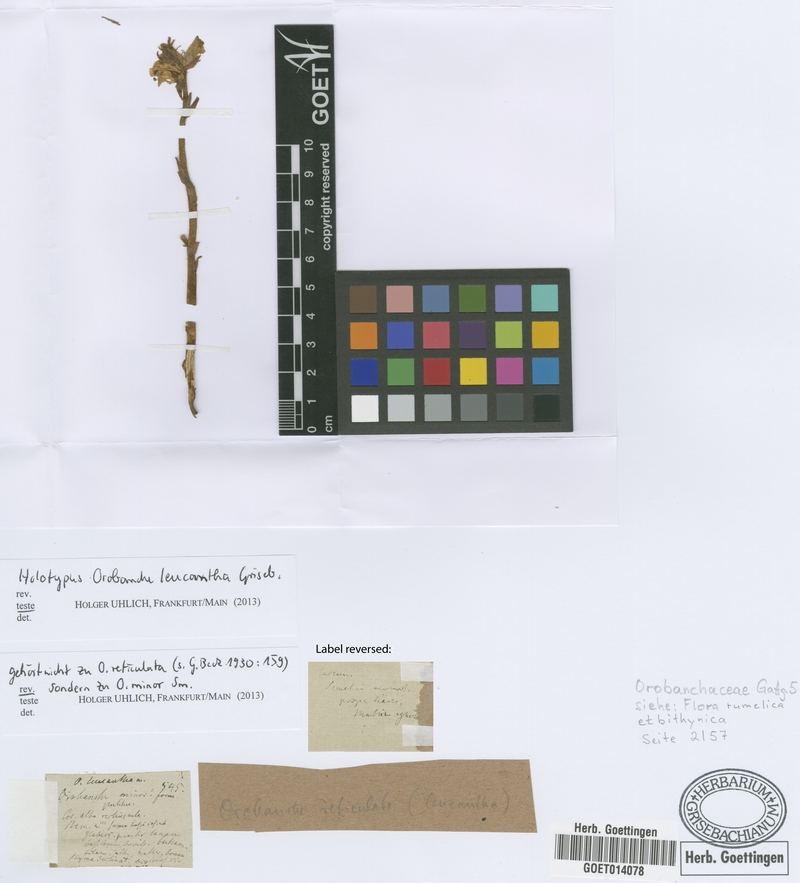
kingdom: Plantae
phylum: Tracheophyta
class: Magnoliopsida
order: Lamiales
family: Orobanchaceae
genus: Orobanche
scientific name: Orobanche minor
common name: Common broomrape
